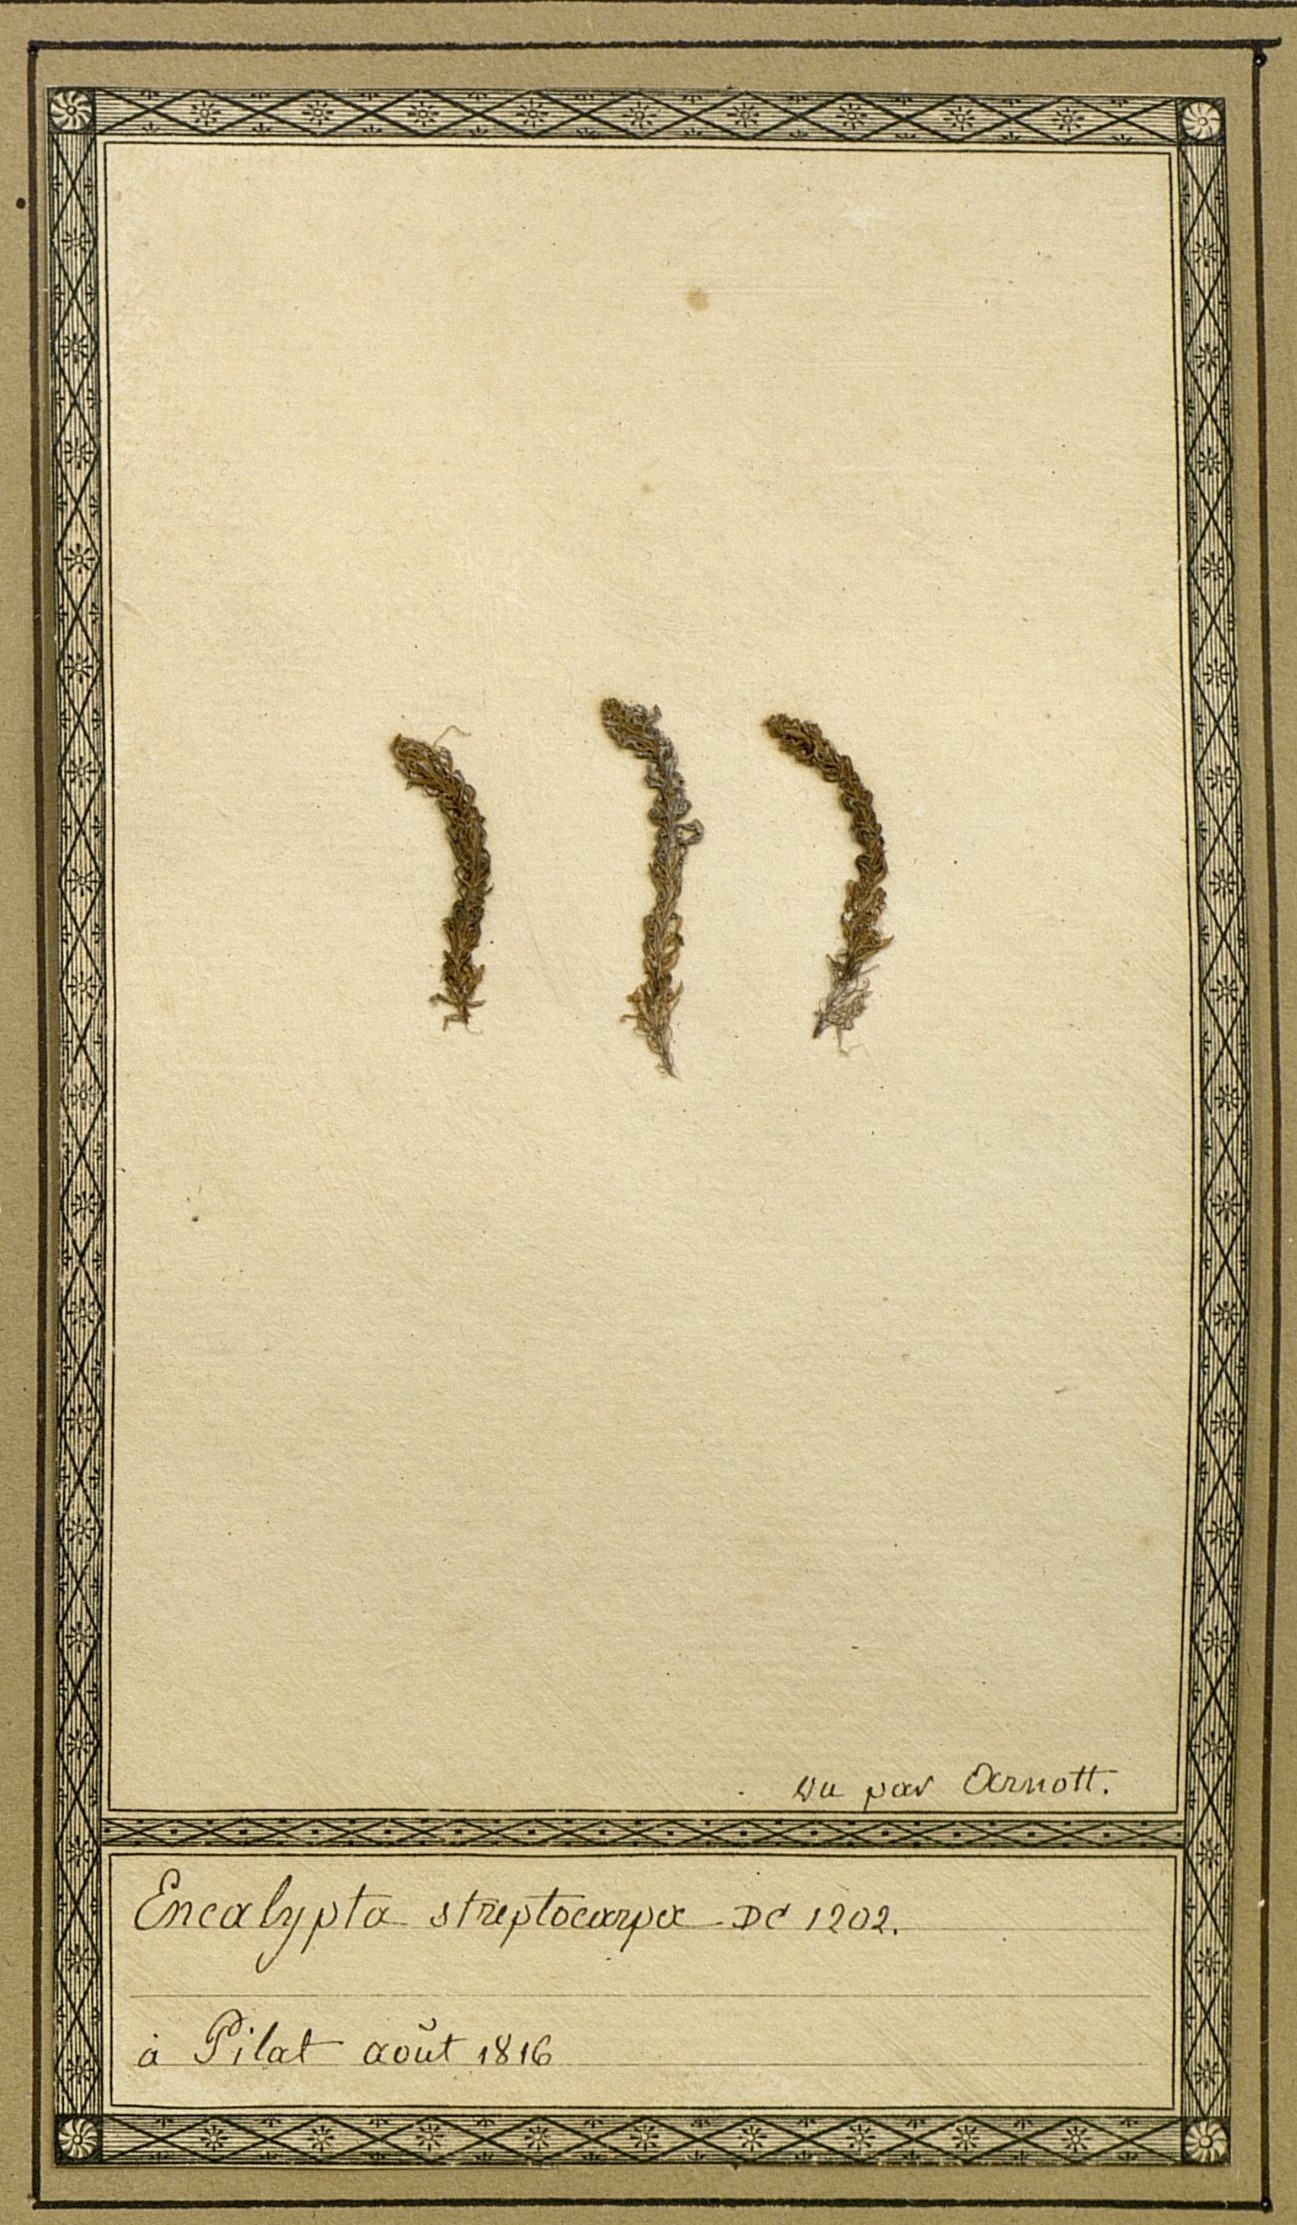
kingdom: Plantae
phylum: Bryophyta
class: Bryopsida
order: Encalyptales
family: Encalyptaceae
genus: Encalypta
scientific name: Encalypta streptocarpa
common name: Spiral extinguisher-moss
